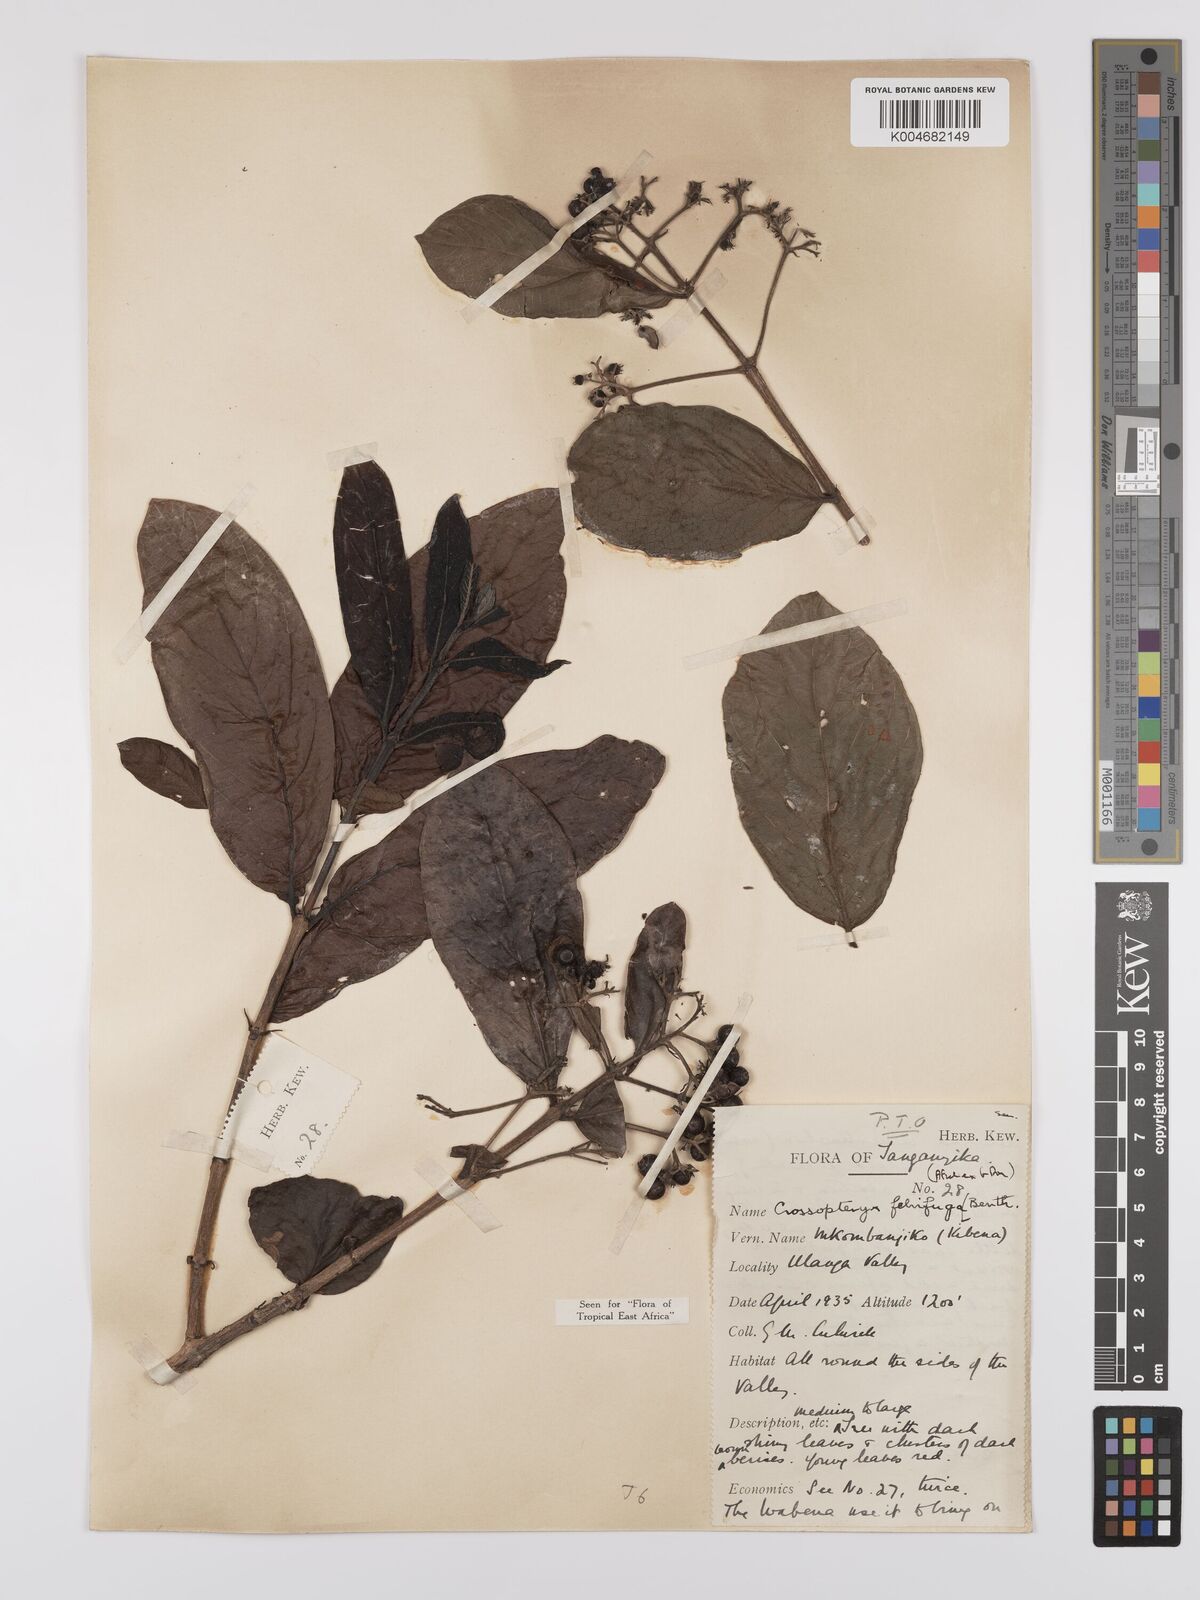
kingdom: Plantae
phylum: Tracheophyta
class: Magnoliopsida
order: Gentianales
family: Rubiaceae
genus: Crossopteryx
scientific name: Crossopteryx febrifuga
